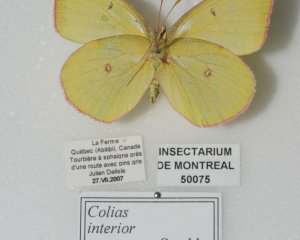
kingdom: Animalia
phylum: Arthropoda
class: Insecta
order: Lepidoptera
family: Pieridae
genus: Colias
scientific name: Colias interior
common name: Pink-edged Sulphur
